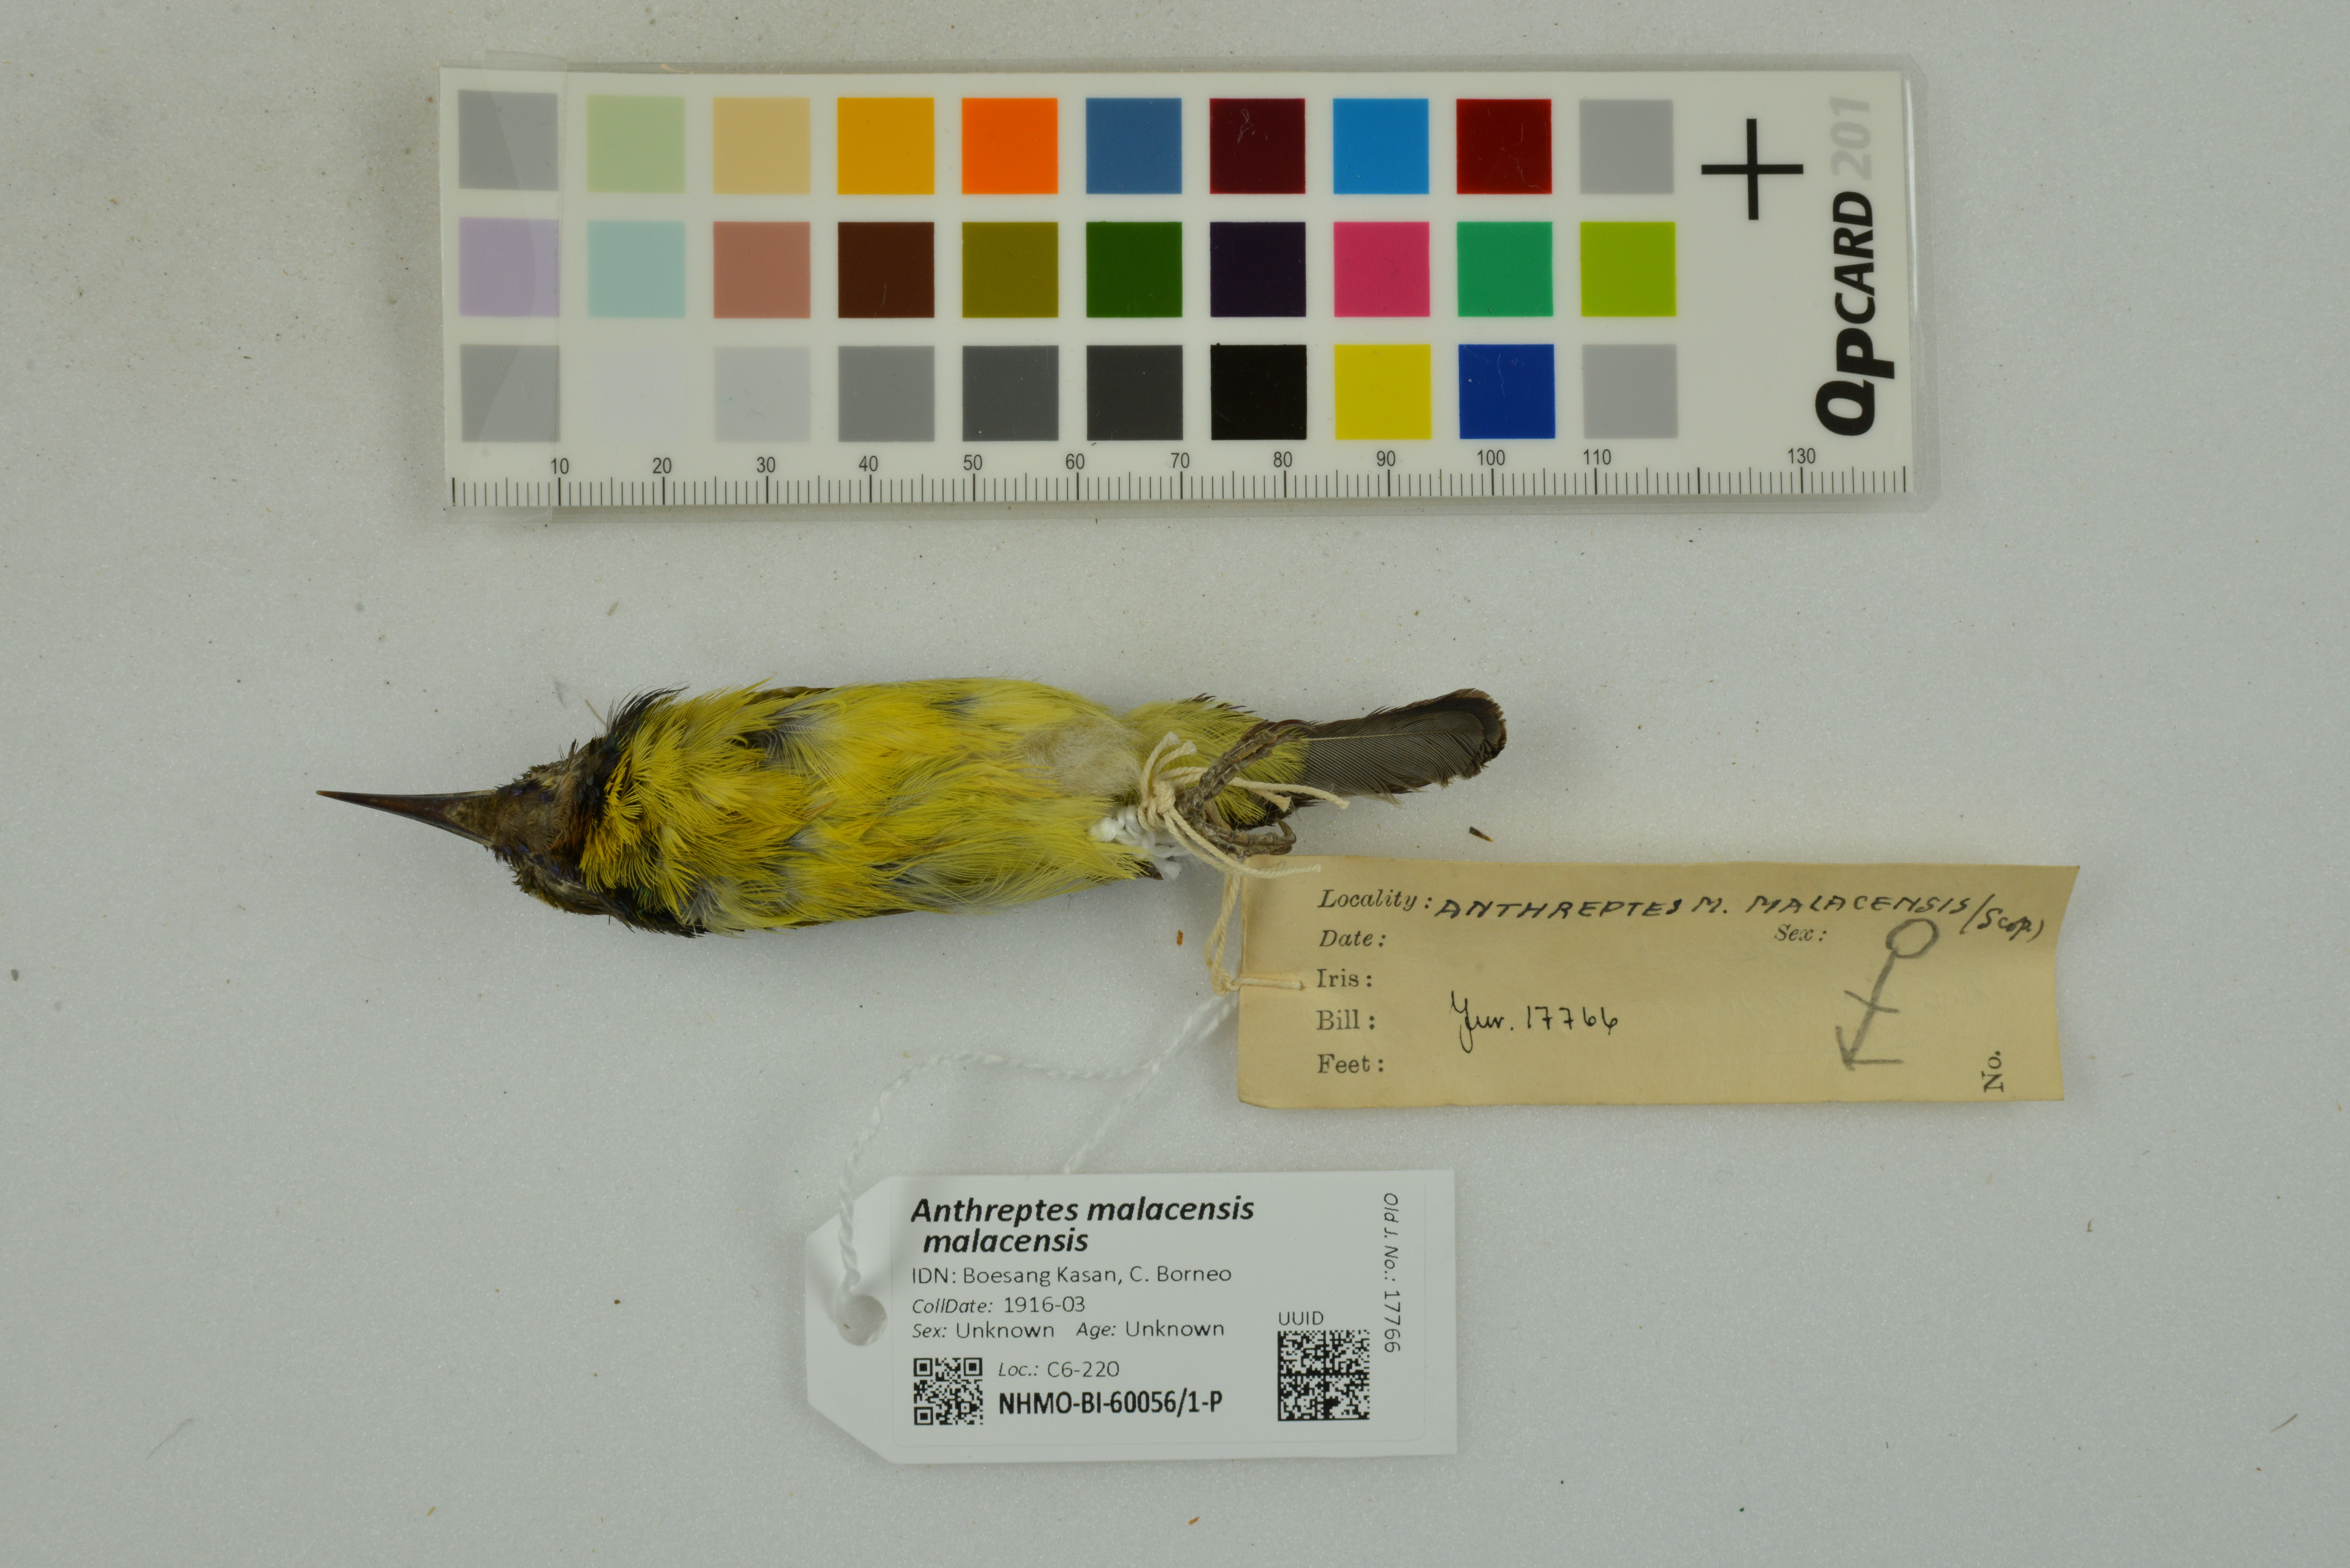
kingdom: Animalia
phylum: Chordata
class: Aves
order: Passeriformes
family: Nectariniidae
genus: Anthreptes
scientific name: Anthreptes malacensis
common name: Brown-throated sunbird
